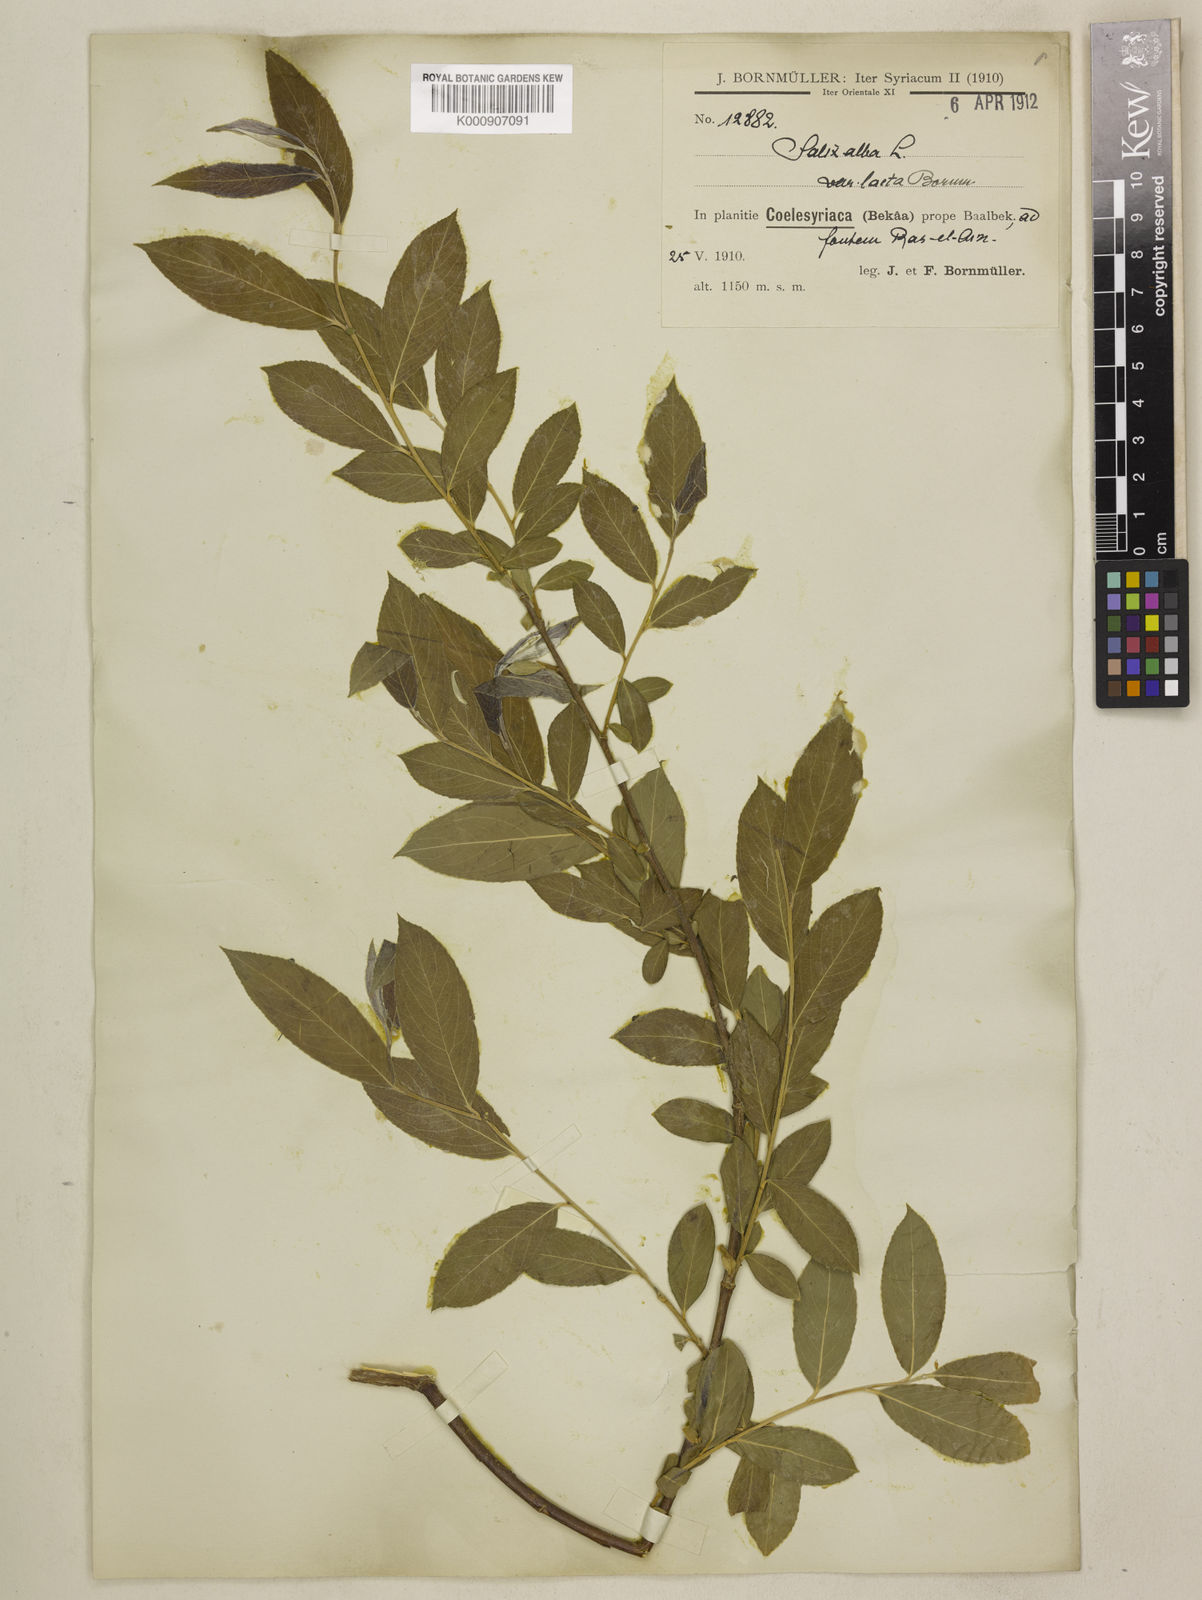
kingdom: Plantae
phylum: Tracheophyta
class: Magnoliopsida
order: Malpighiales
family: Salicaceae
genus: Salix
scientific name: Salix alba
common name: White willow
